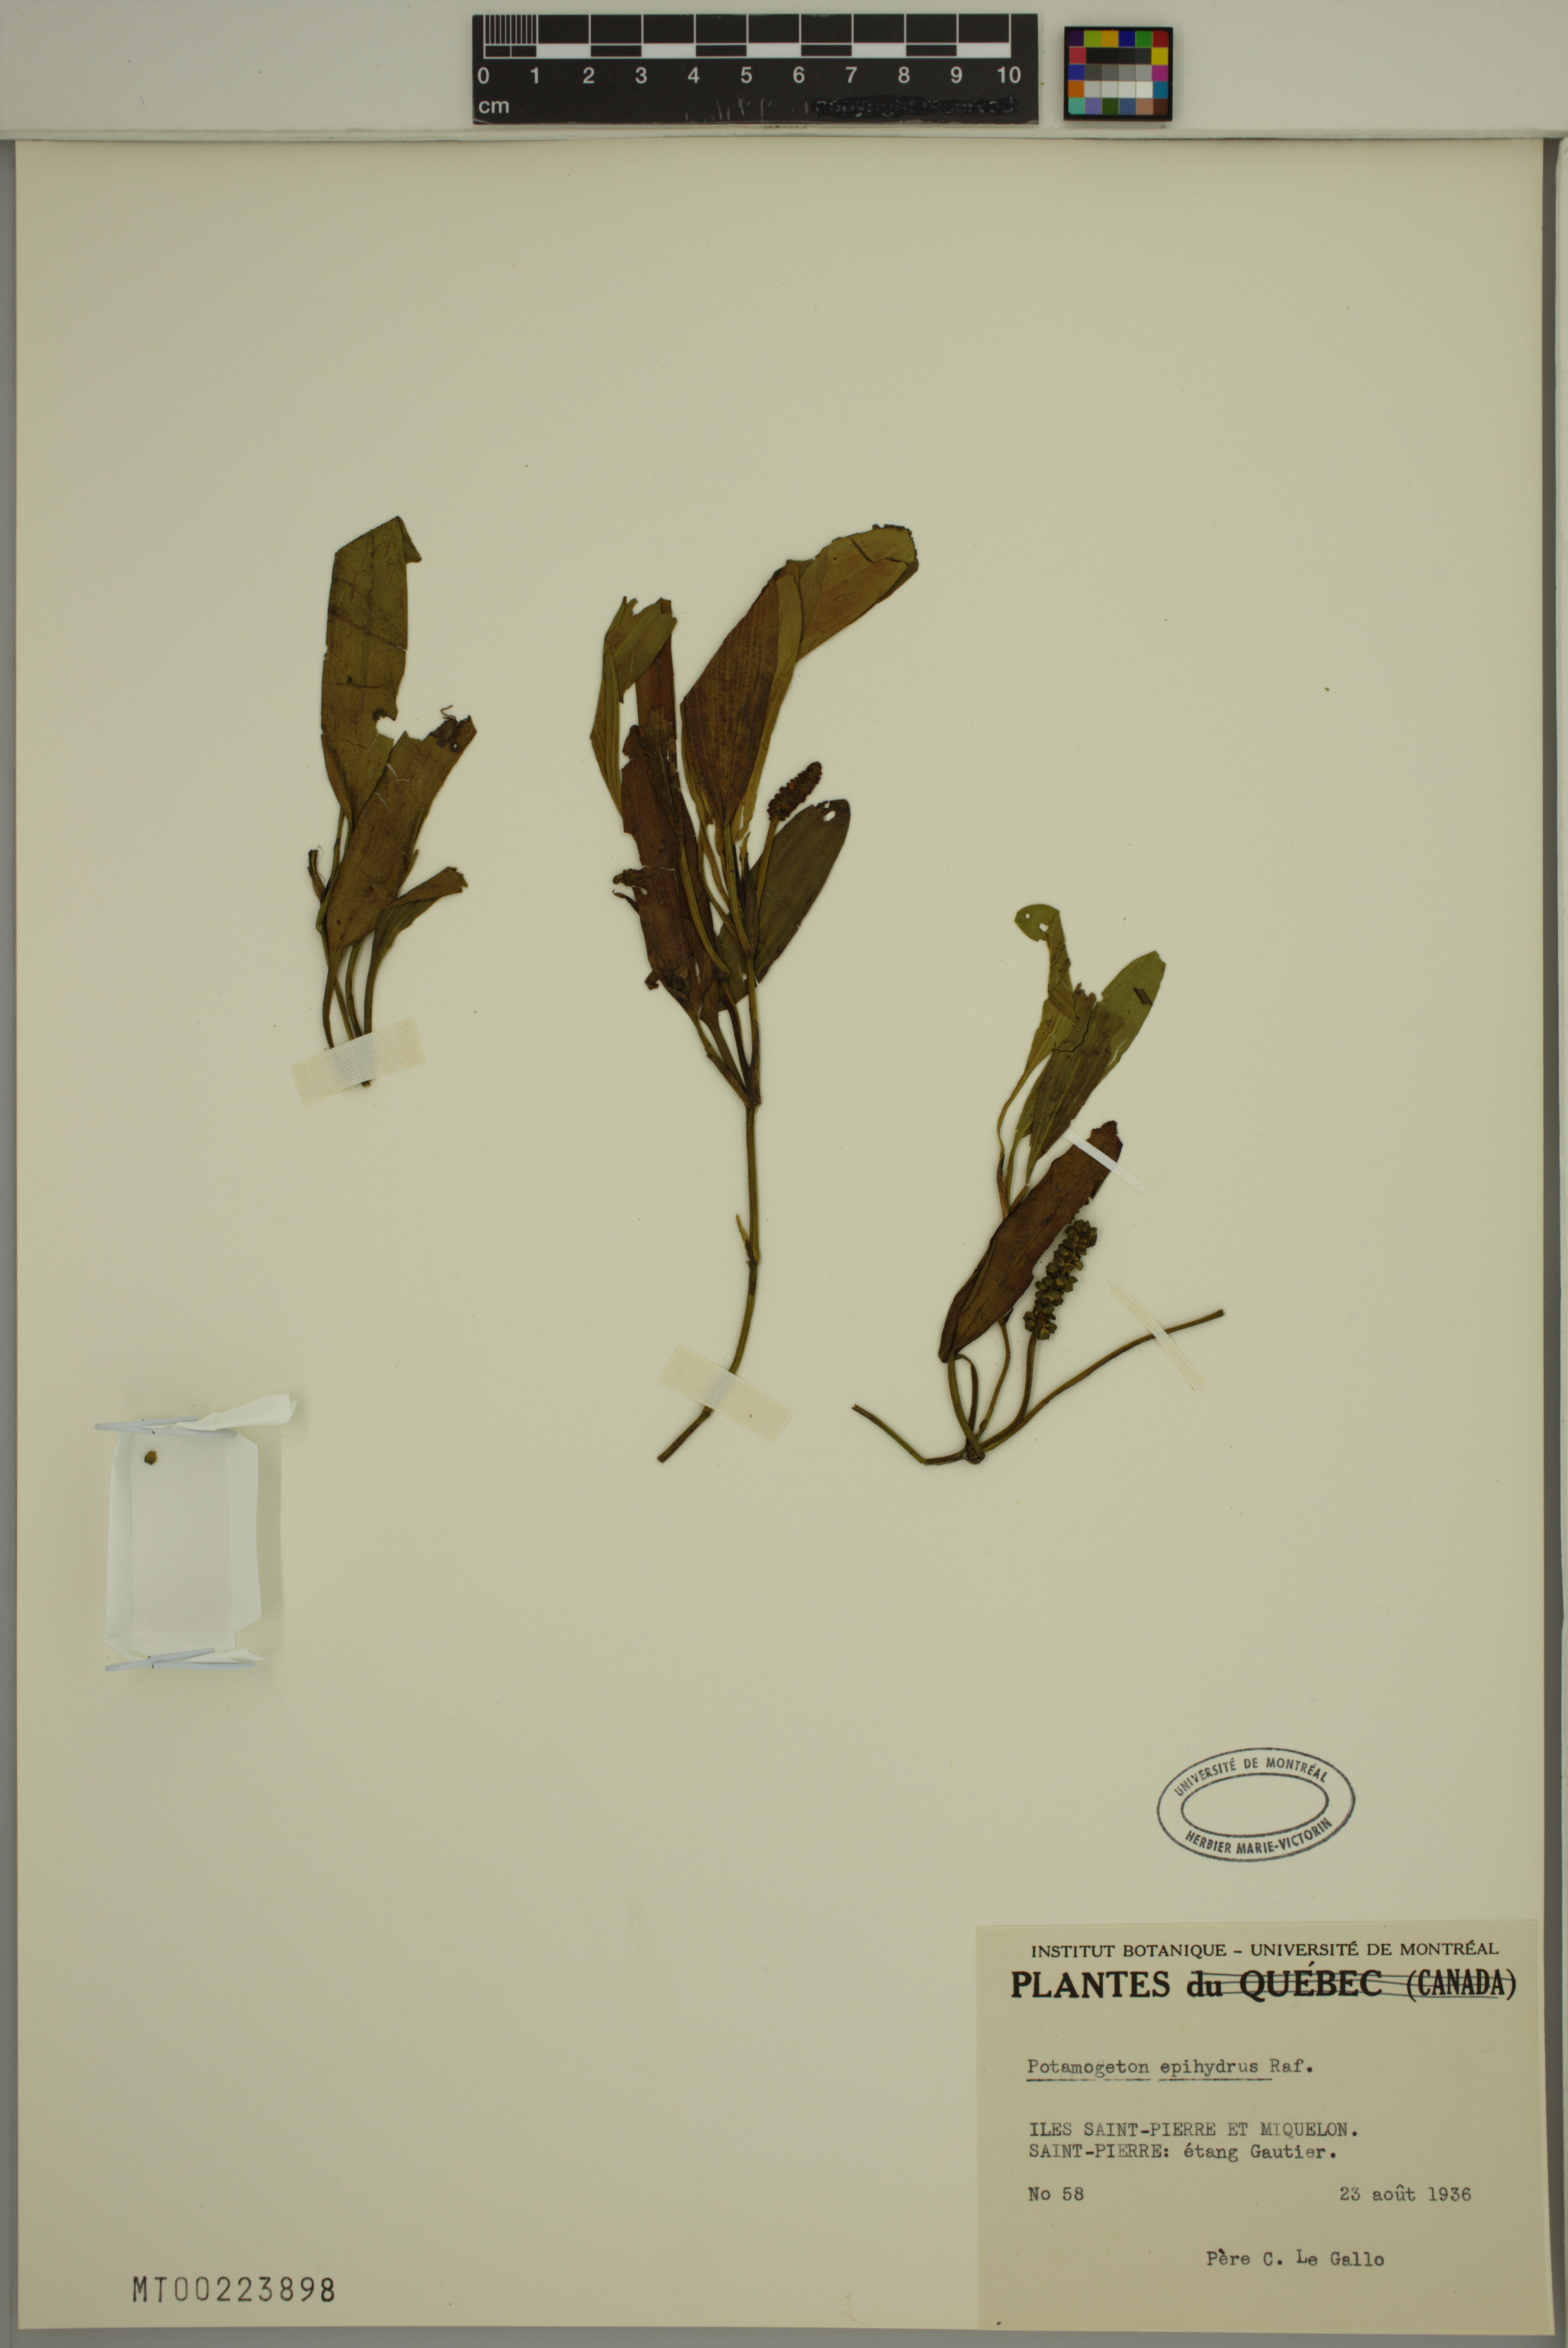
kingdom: Plantae
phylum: Tracheophyta
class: Liliopsida
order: Alismatales
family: Potamogetonaceae
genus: Potamogeton
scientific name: Potamogeton epihydrus
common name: American pondweed
